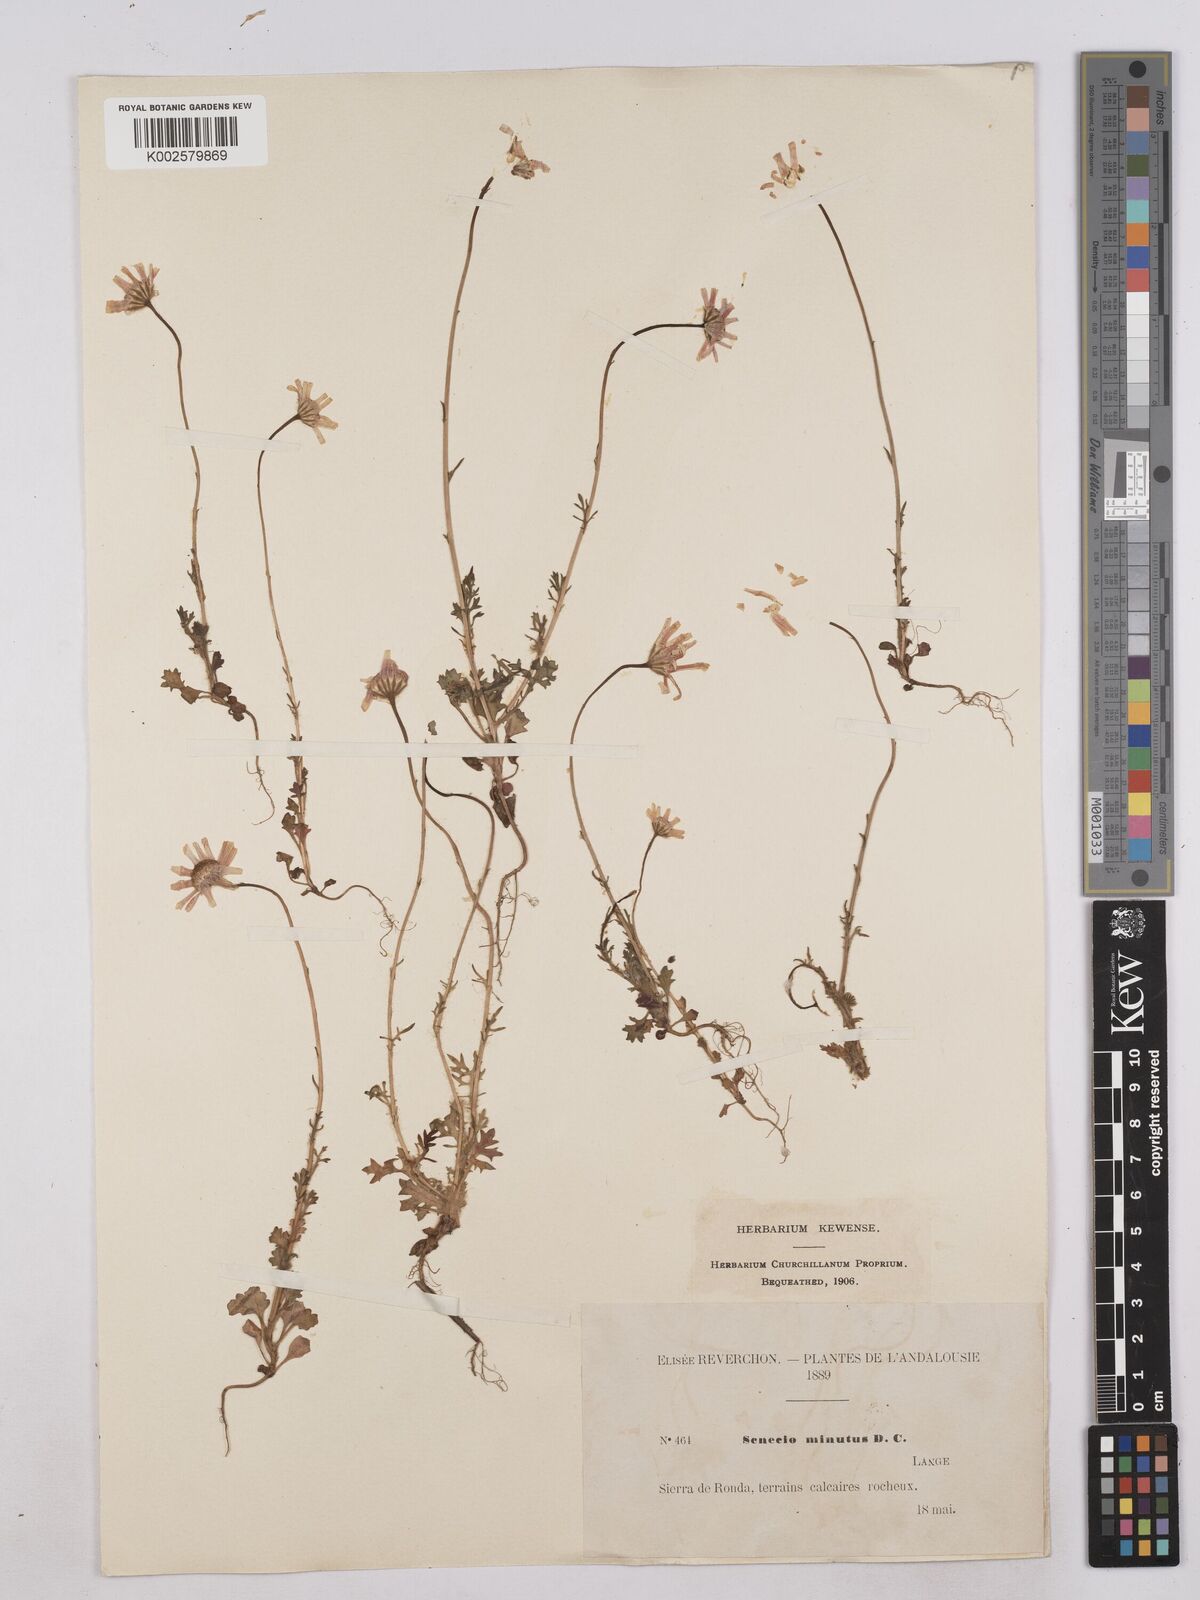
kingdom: Plantae
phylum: Tracheophyta
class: Magnoliopsida
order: Asterales
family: Asteraceae
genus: Jacobaea
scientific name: Jacobaea minuta
